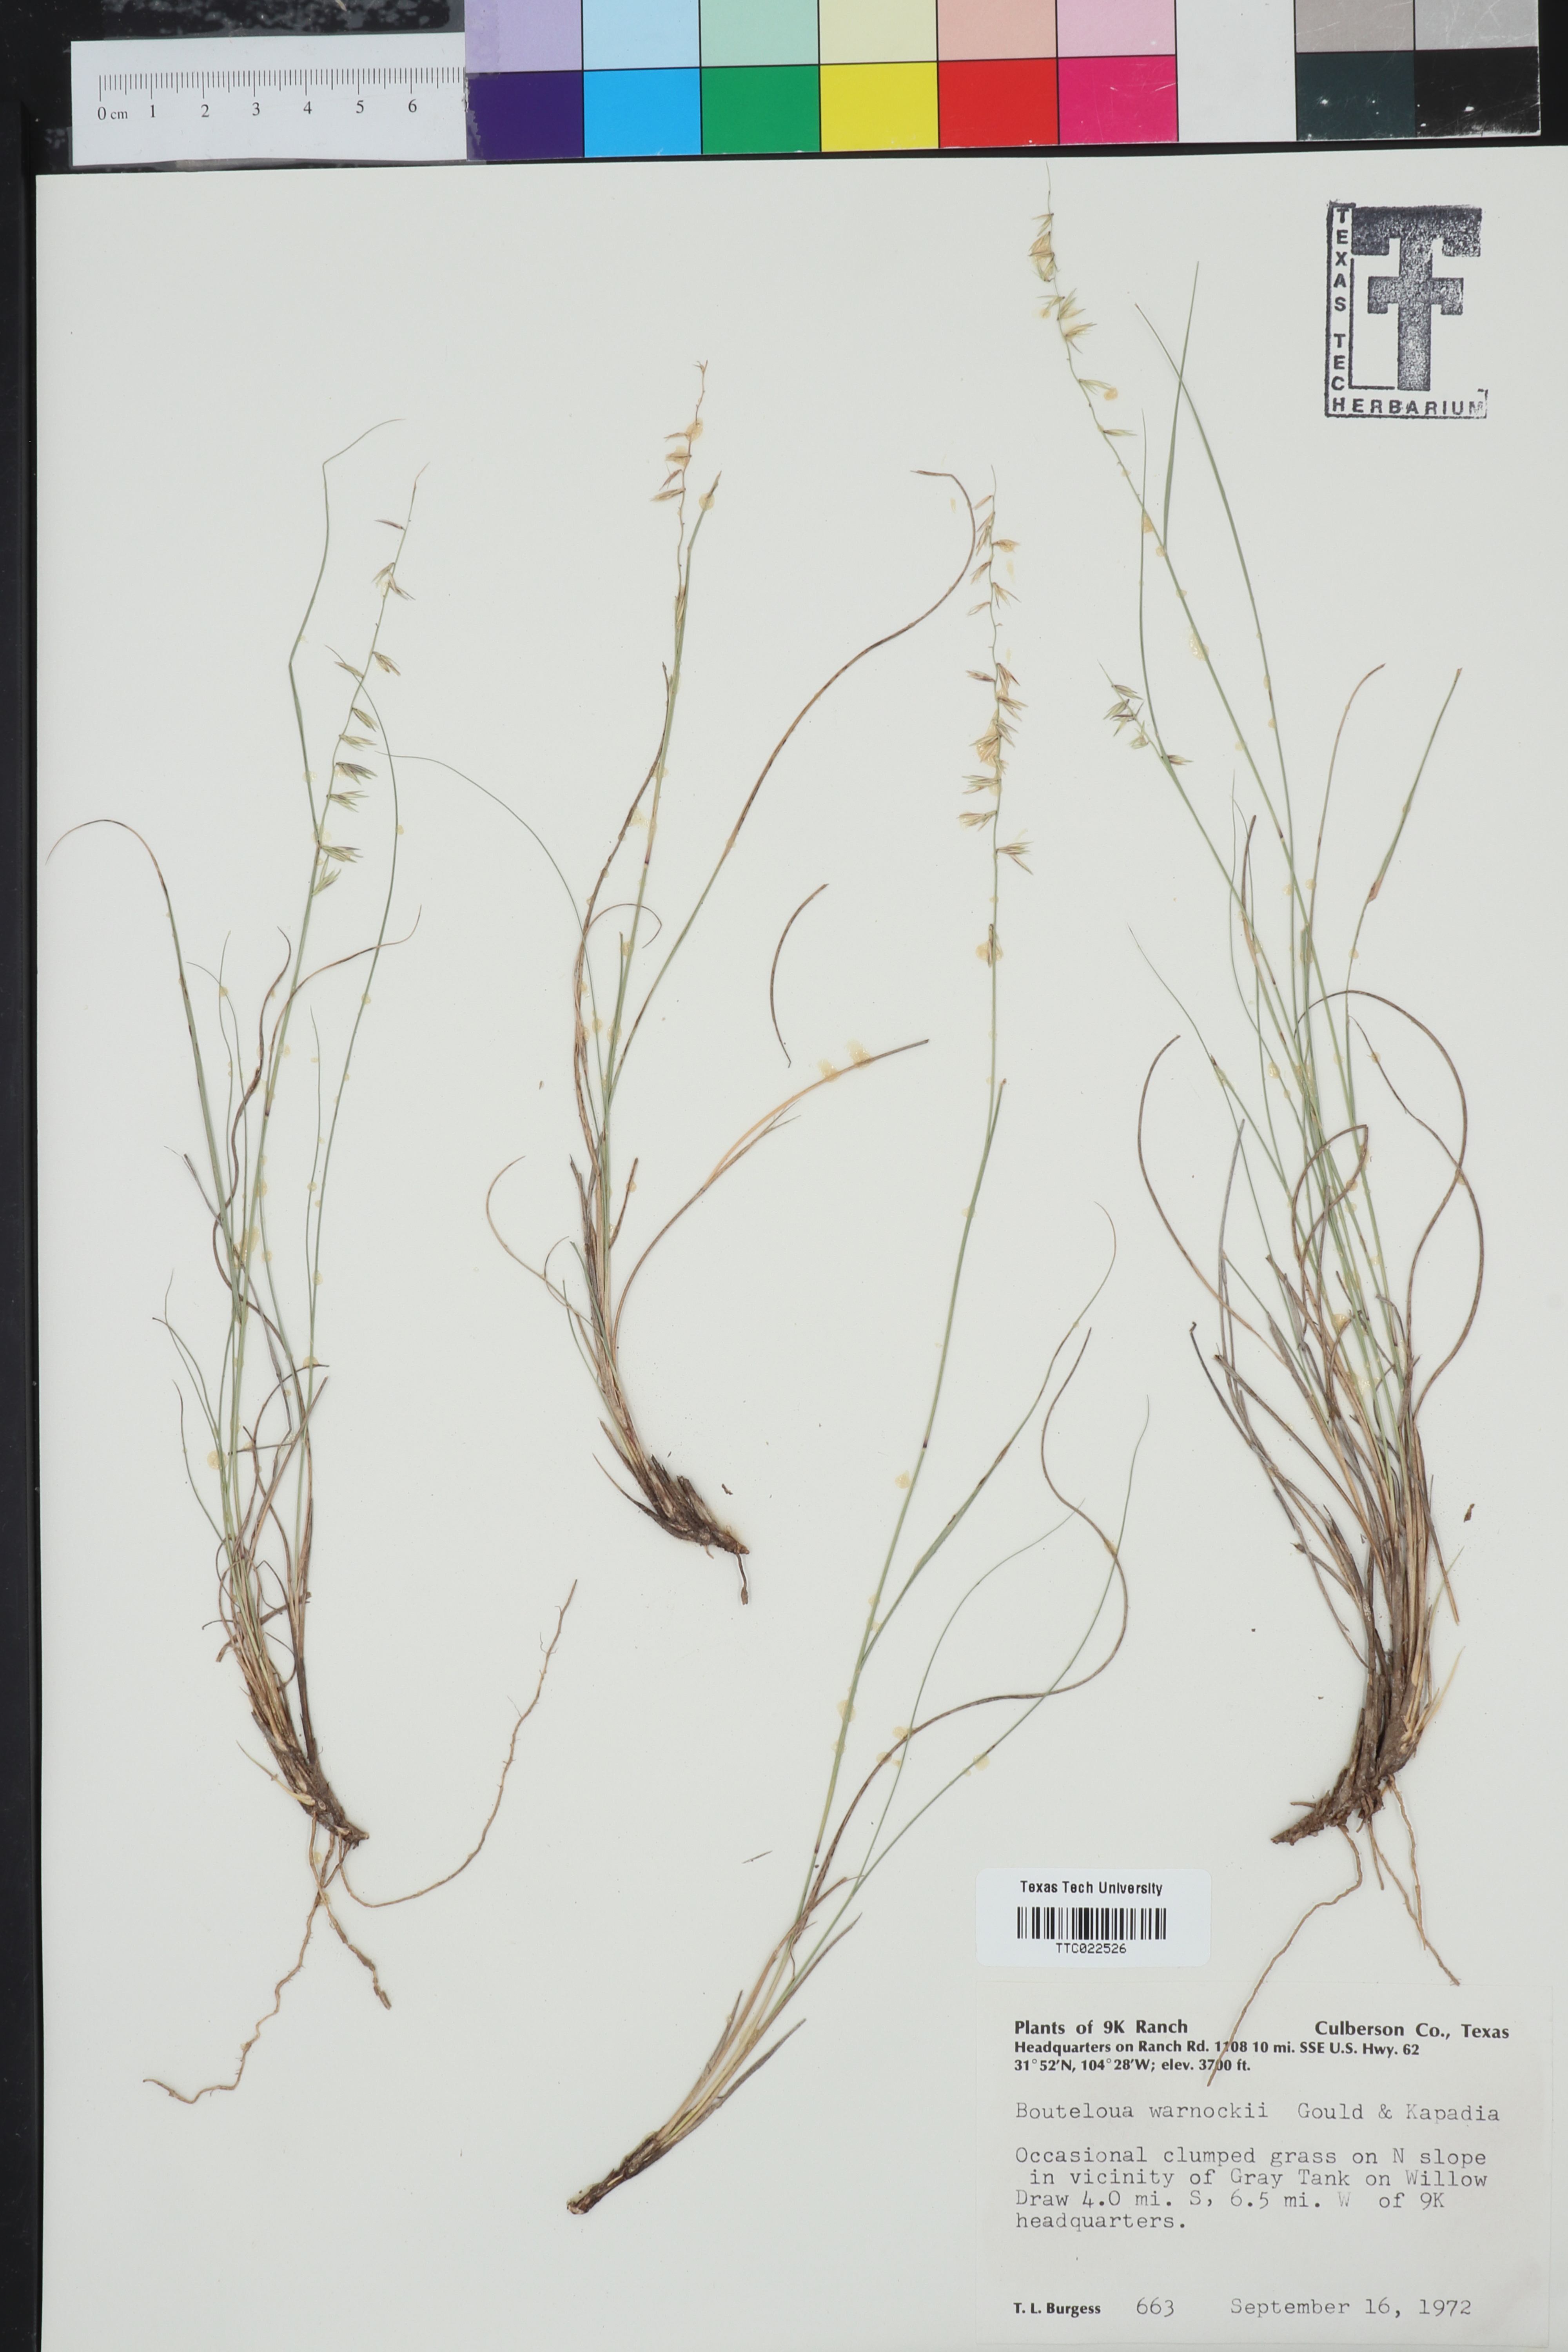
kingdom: Plantae
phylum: Tracheophyta
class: Liliopsida
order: Poales
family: Poaceae
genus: Bouteloua
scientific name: Bouteloua warnockii
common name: Warnock's grama
